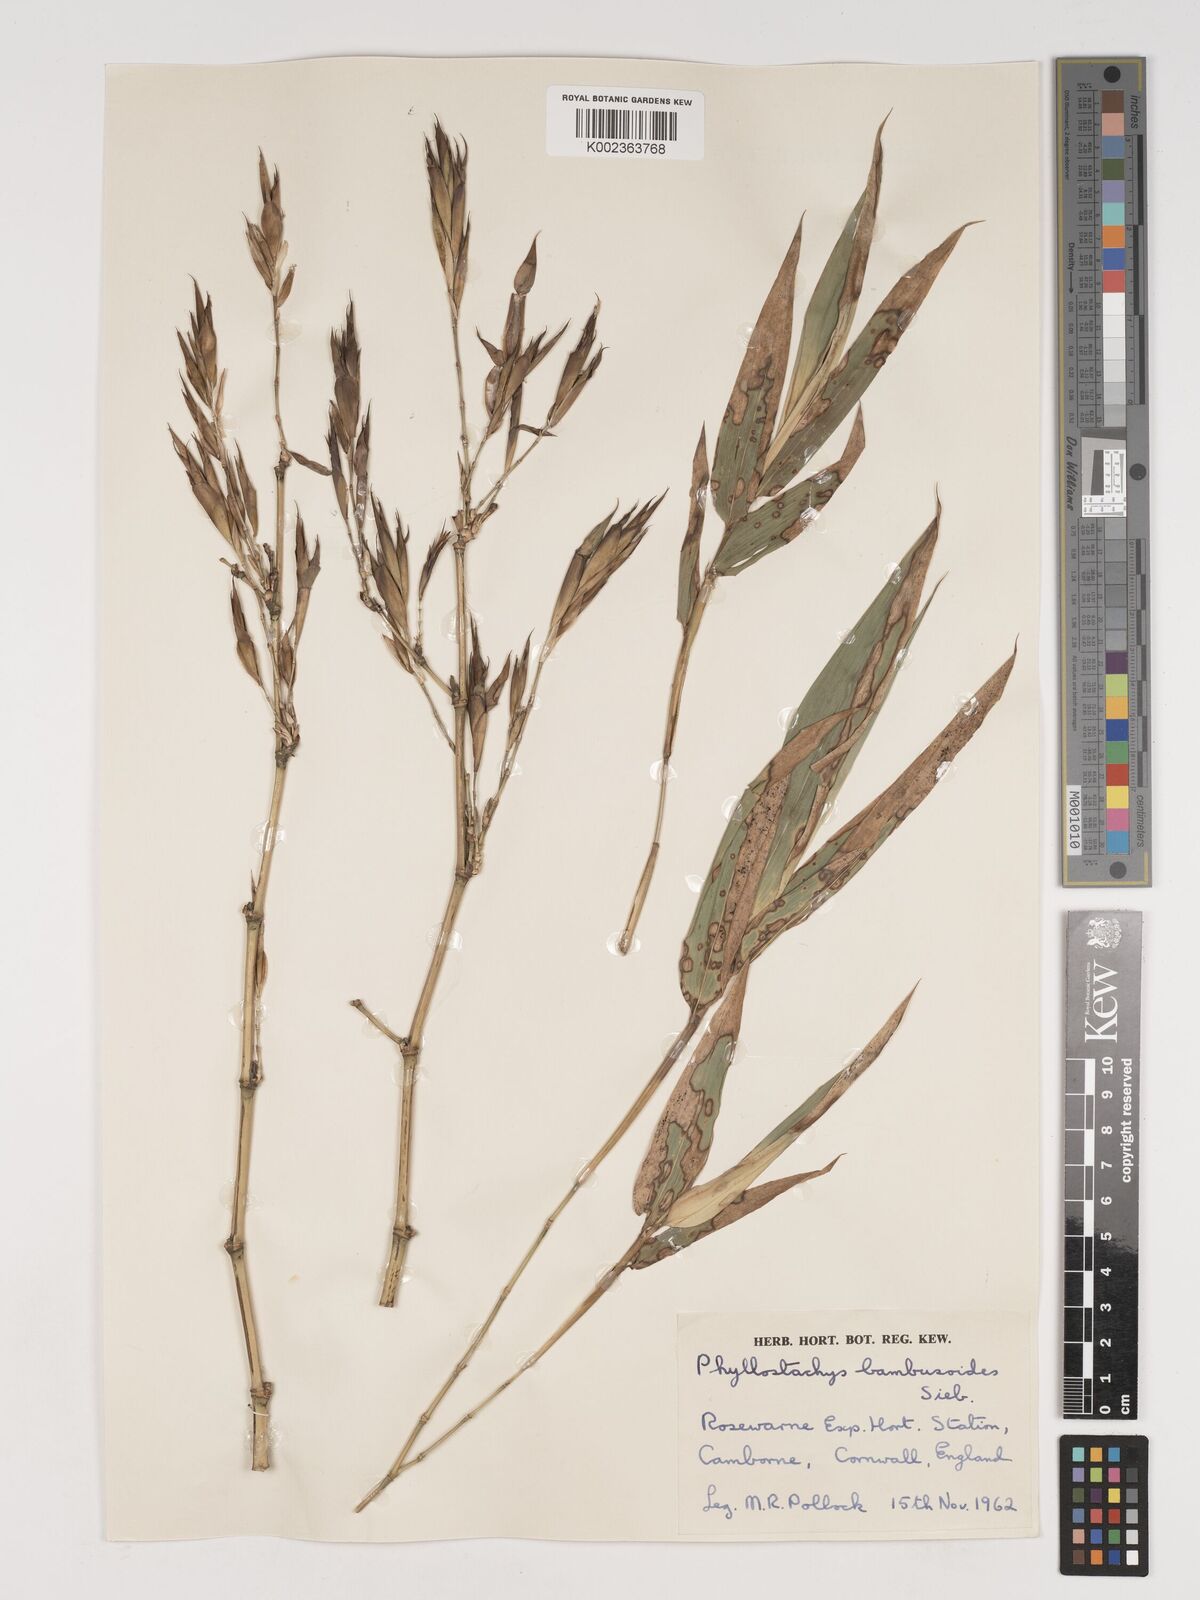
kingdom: Plantae
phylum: Tracheophyta
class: Liliopsida
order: Poales
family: Poaceae
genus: Phyllostachys
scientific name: Phyllostachys reticulata
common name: Bamboo
